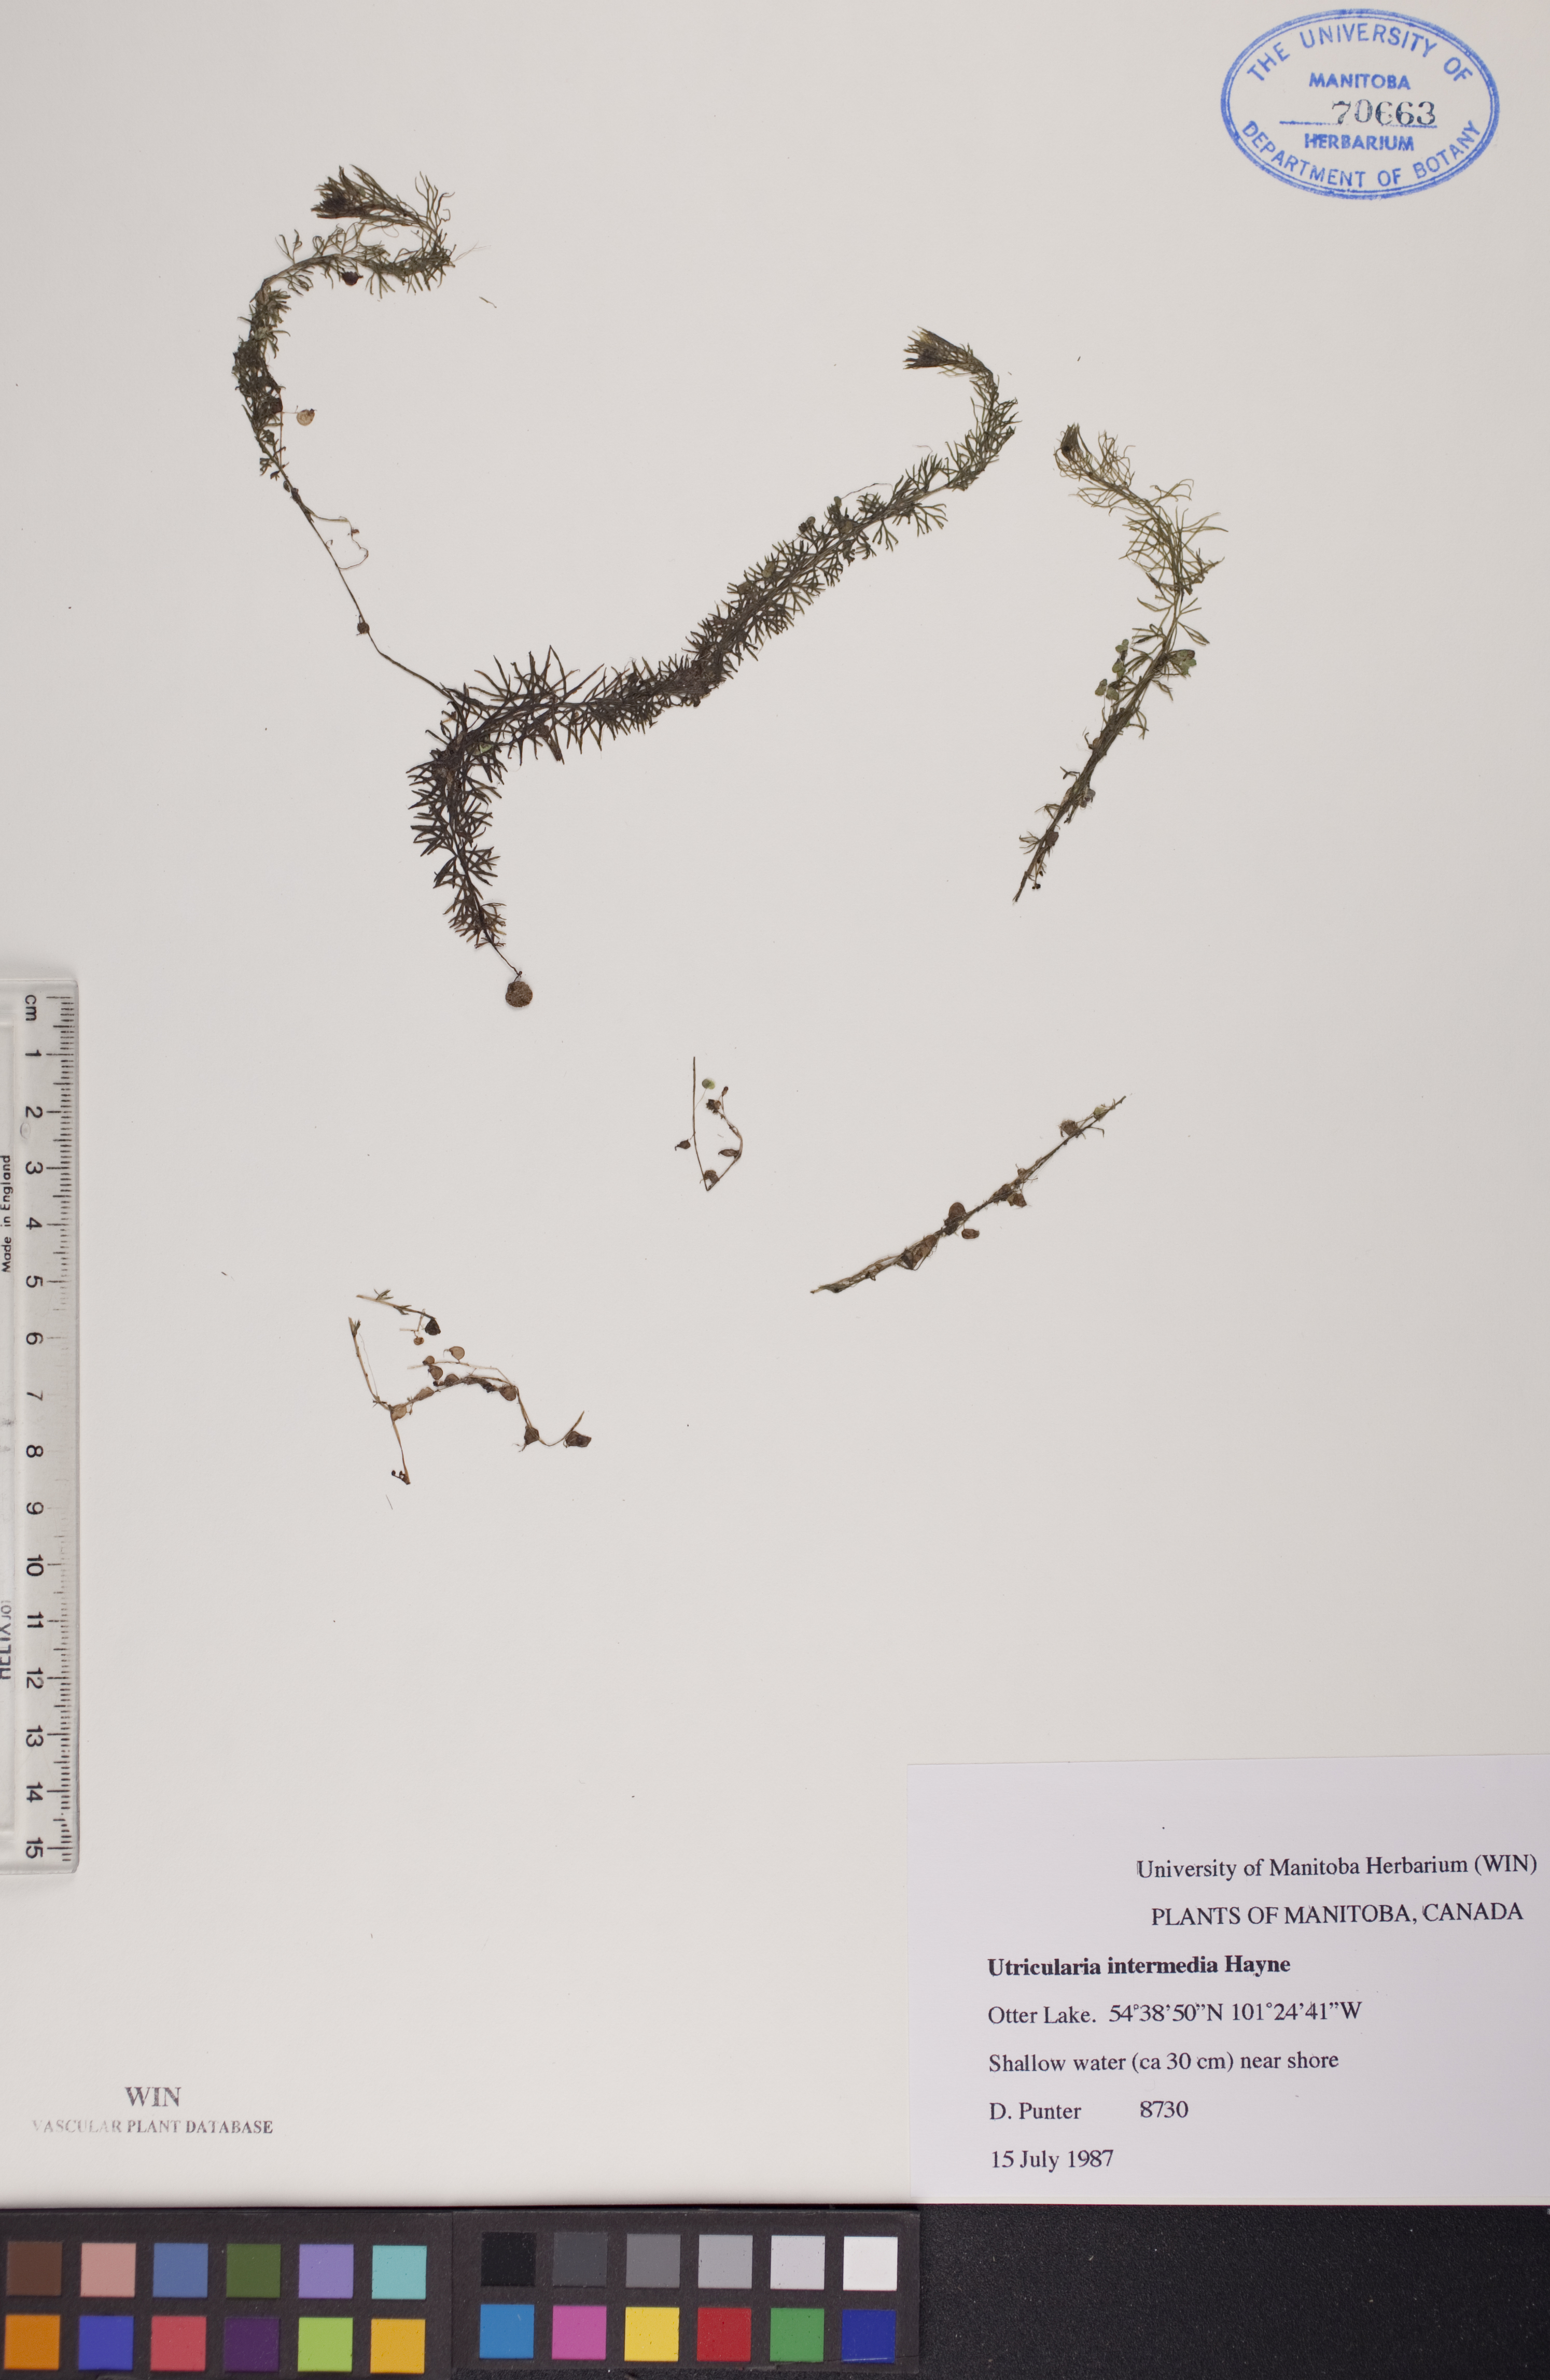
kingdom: Plantae
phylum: Tracheophyta
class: Magnoliopsida
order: Lamiales
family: Lentibulariaceae
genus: Utricularia
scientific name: Utricularia intermedia
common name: Intermediate bladderwort
